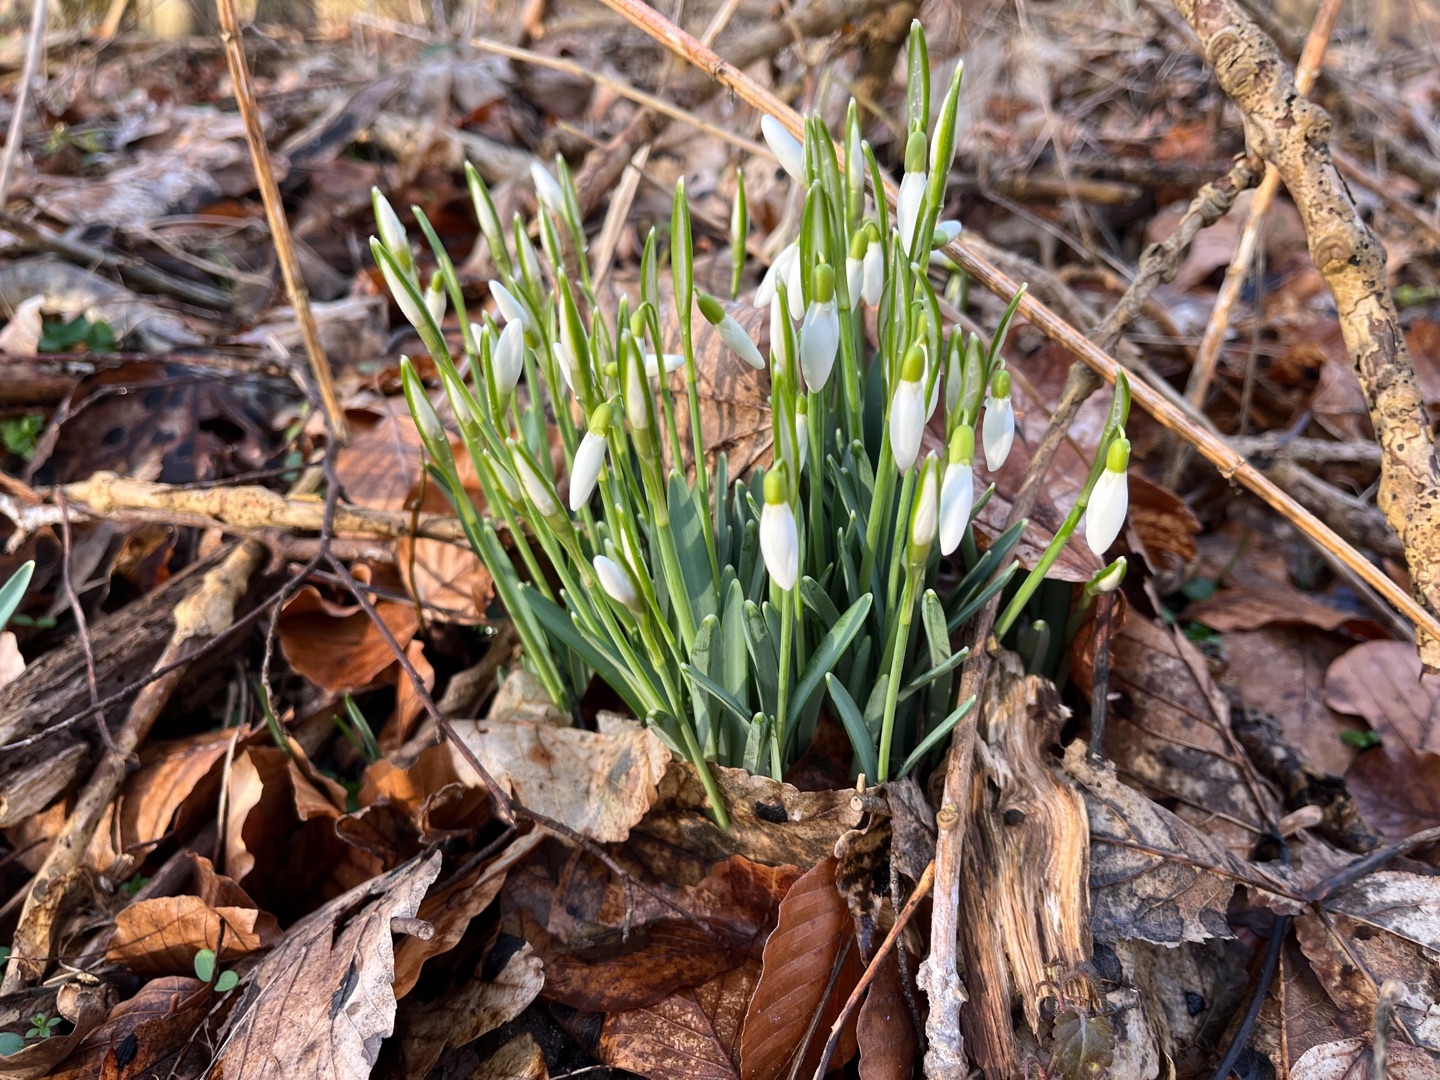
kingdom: Plantae
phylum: Tracheophyta
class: Liliopsida
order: Asparagales
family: Amaryllidaceae
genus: Galanthus
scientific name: Galanthus nivalis
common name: Vintergæk
